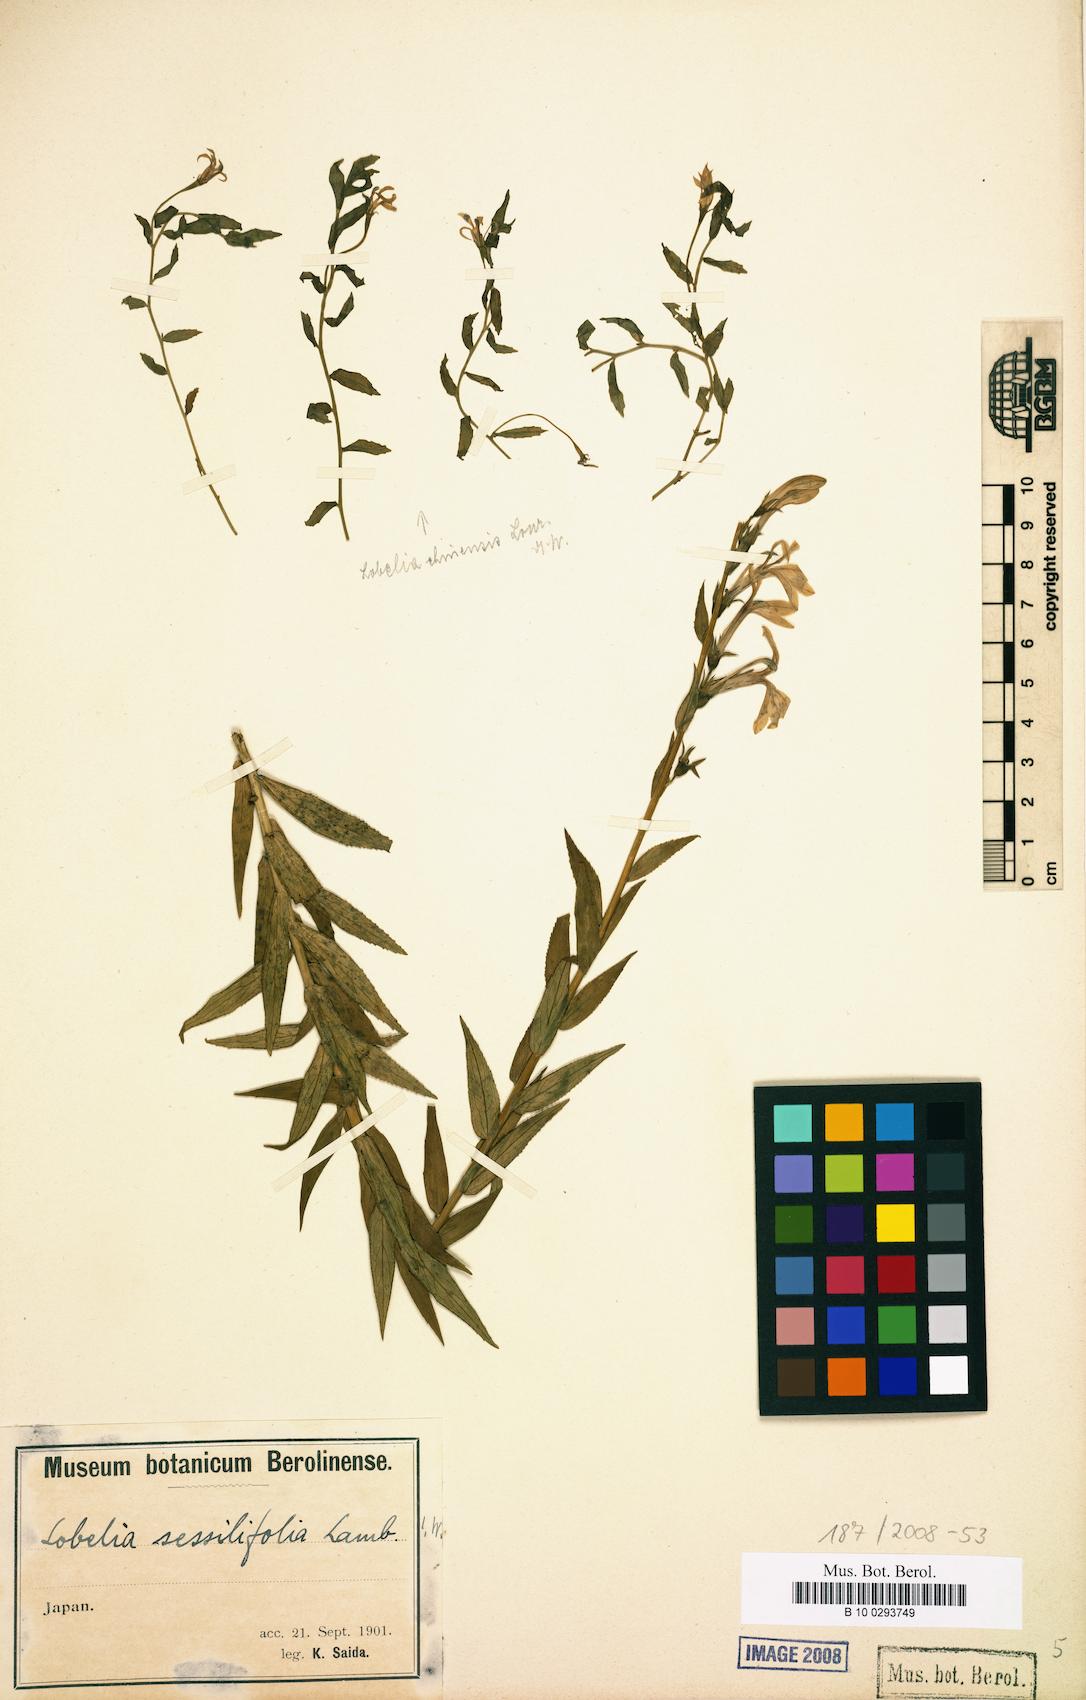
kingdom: Plantae
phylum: Tracheophyta
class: Magnoliopsida
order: Asterales
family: Campanulaceae
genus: Lobelia
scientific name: Lobelia sessilifolia
